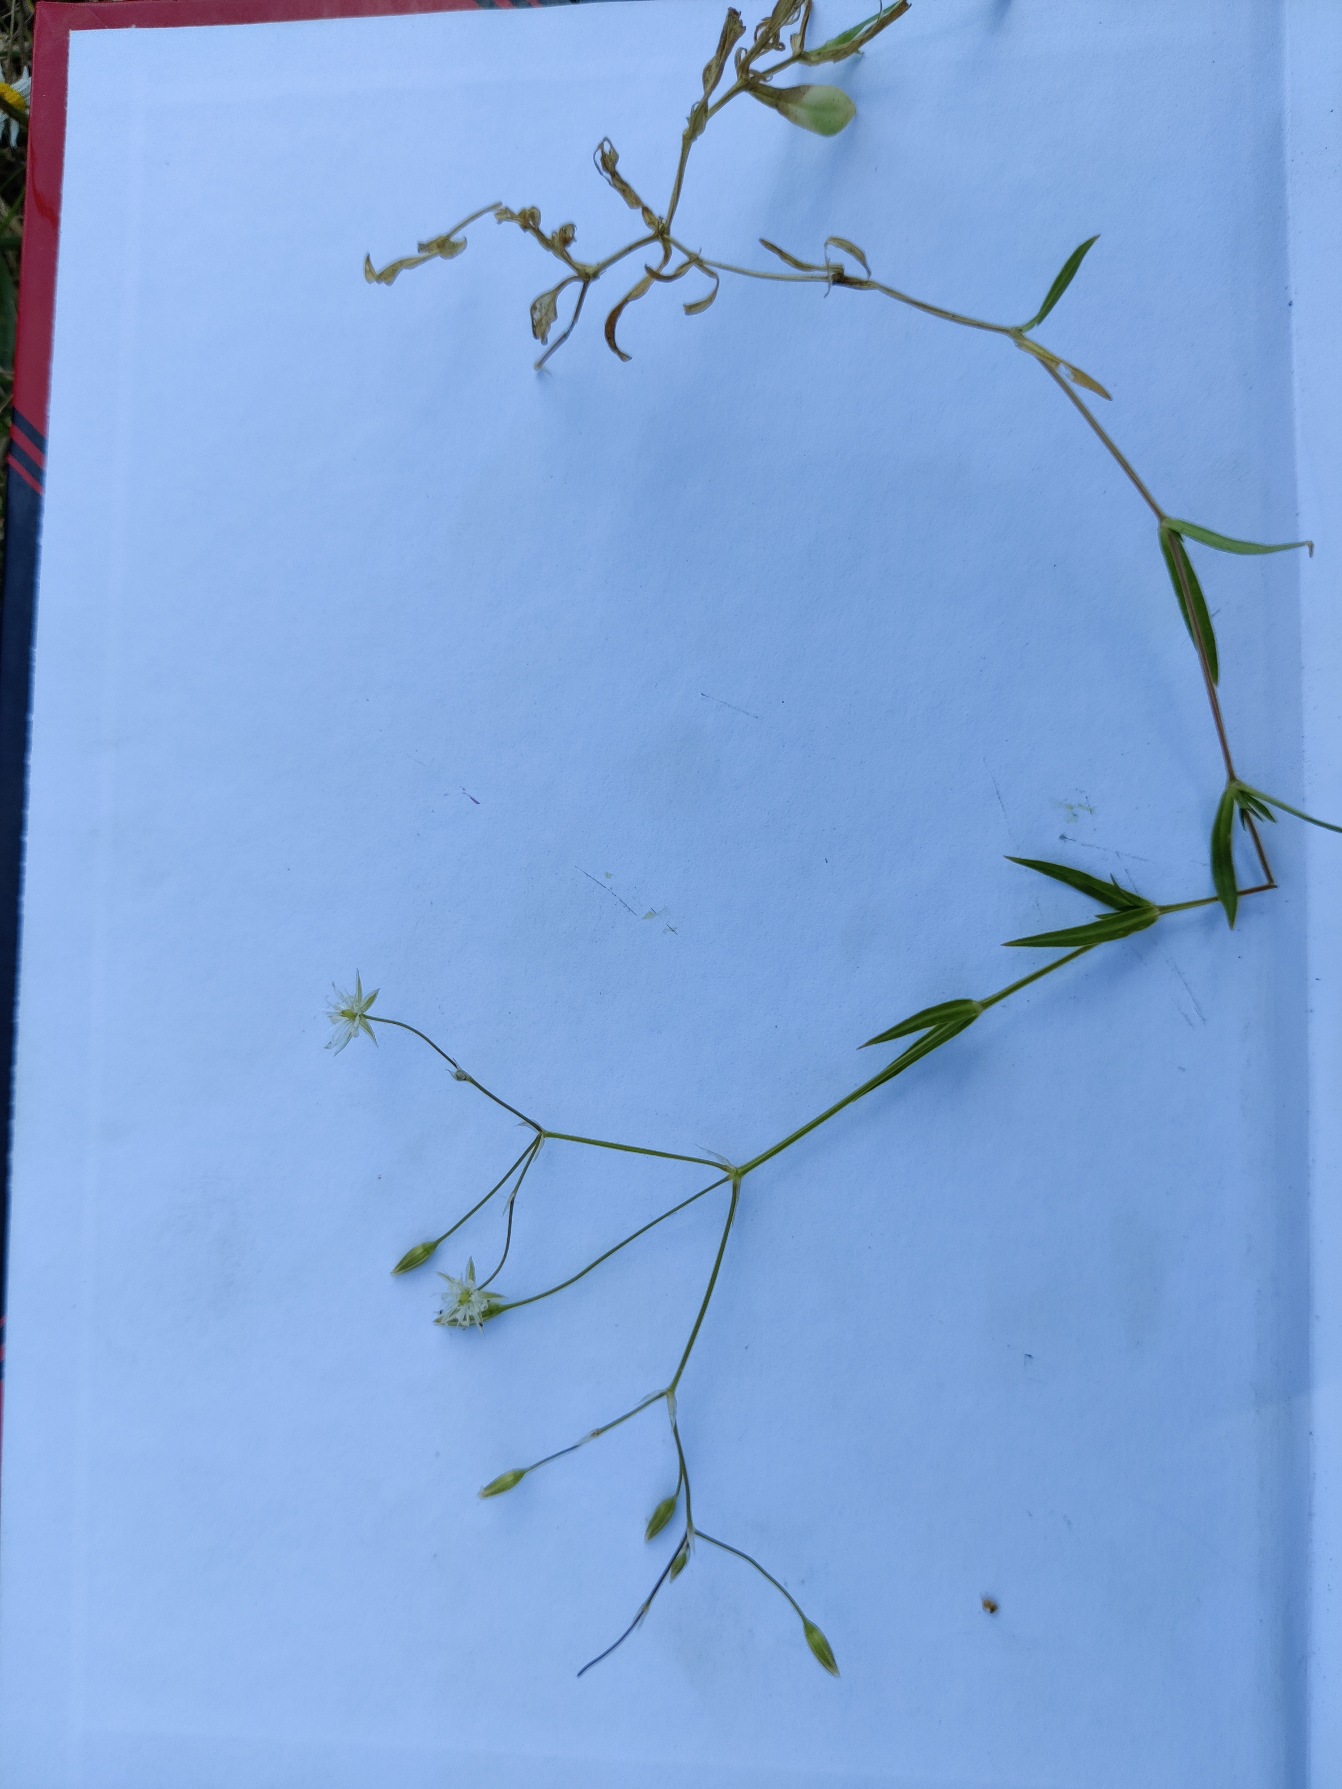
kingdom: Plantae
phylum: Tracheophyta
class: Magnoliopsida
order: Caryophyllales
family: Caryophyllaceae
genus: Stellaria
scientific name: Stellaria graminea
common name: Græsbladet fladstjerne
